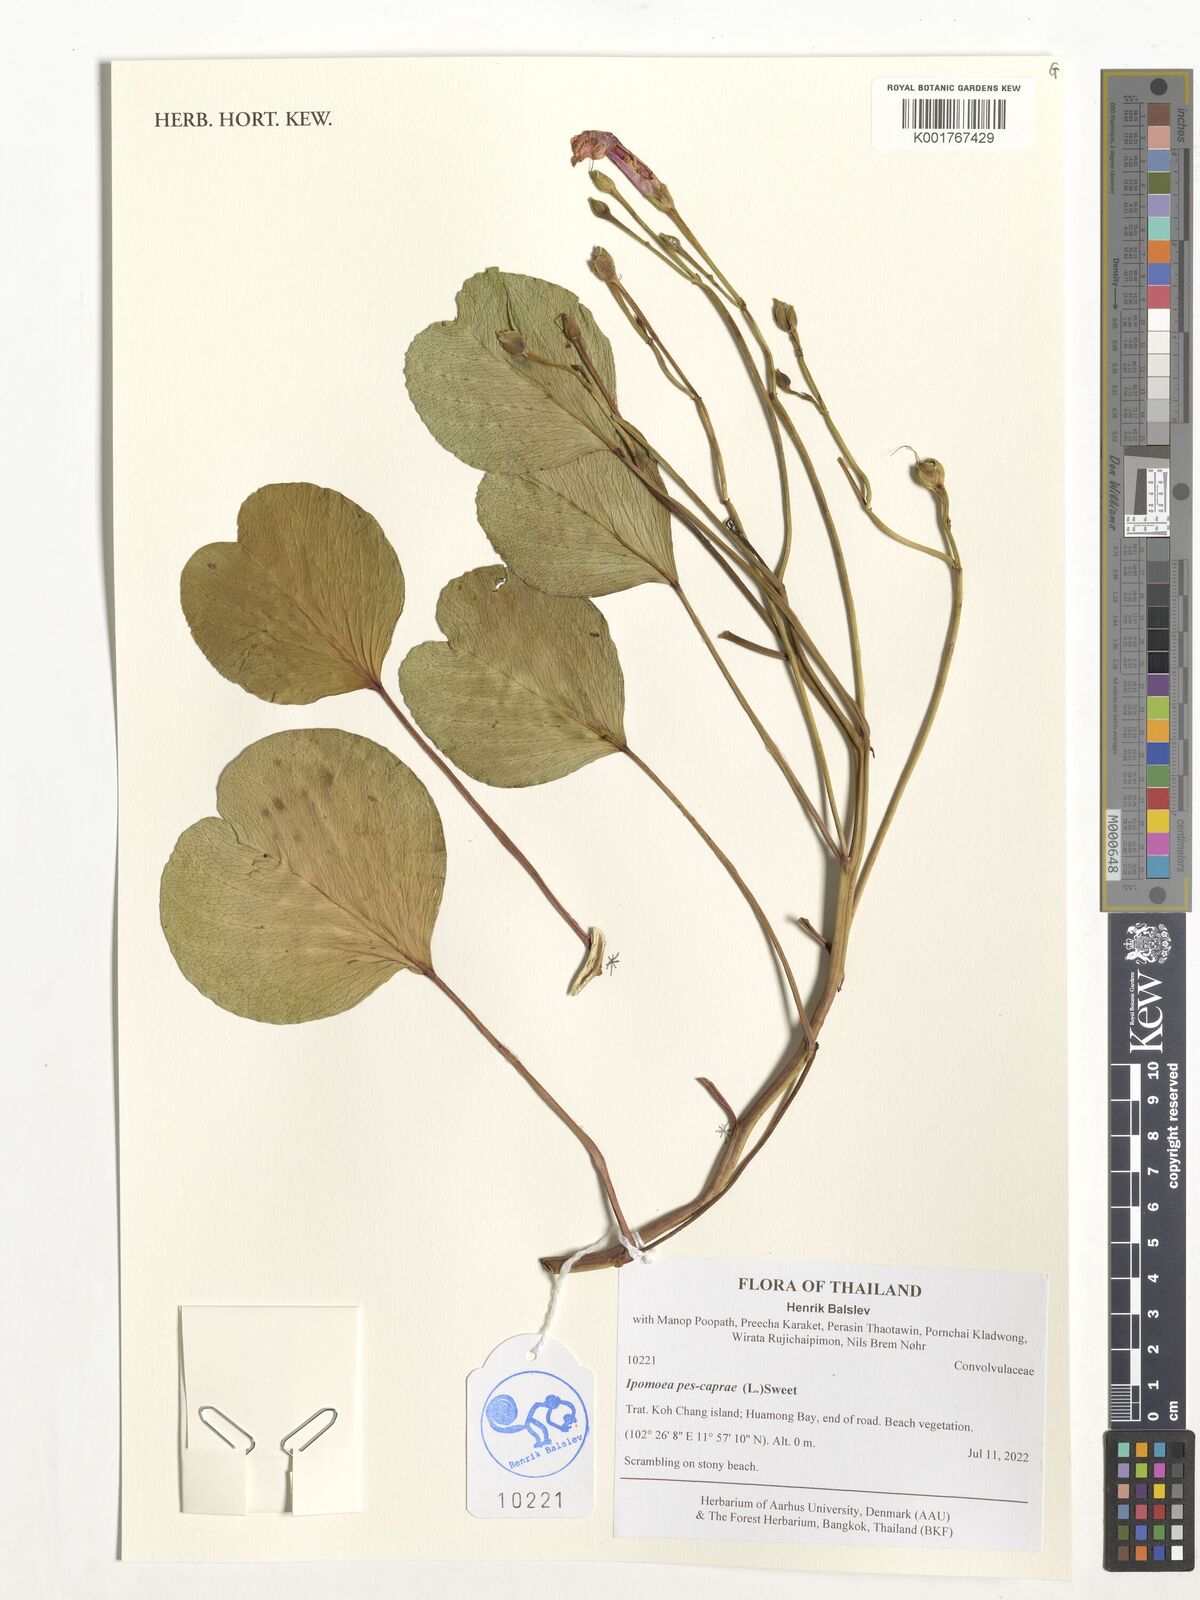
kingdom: Plantae
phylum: Tracheophyta
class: Magnoliopsida
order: Solanales
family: Convolvulaceae
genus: Ipomoea
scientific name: Ipomoea pes-caprae
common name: Beach morning glory
